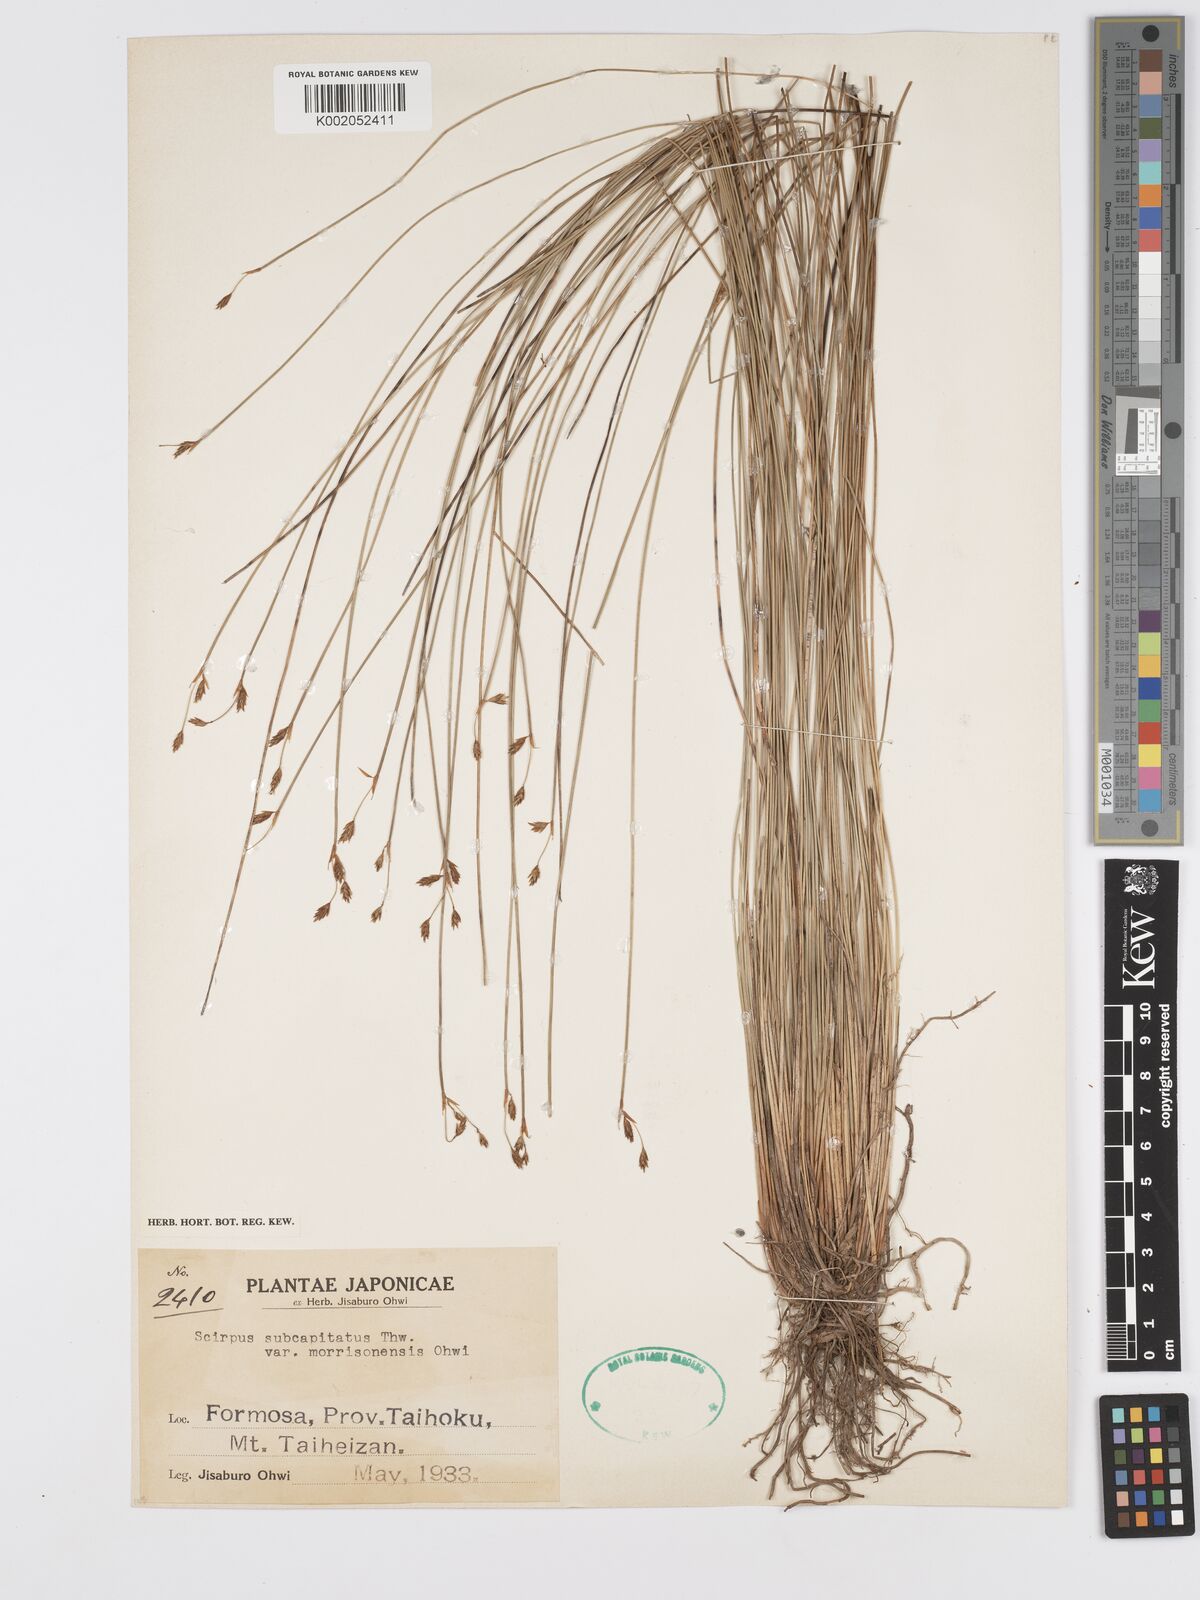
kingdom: Plantae
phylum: Tracheophyta
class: Liliopsida
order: Poales
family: Cyperaceae
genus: Trichophorum
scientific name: Trichophorum subcapitatum
